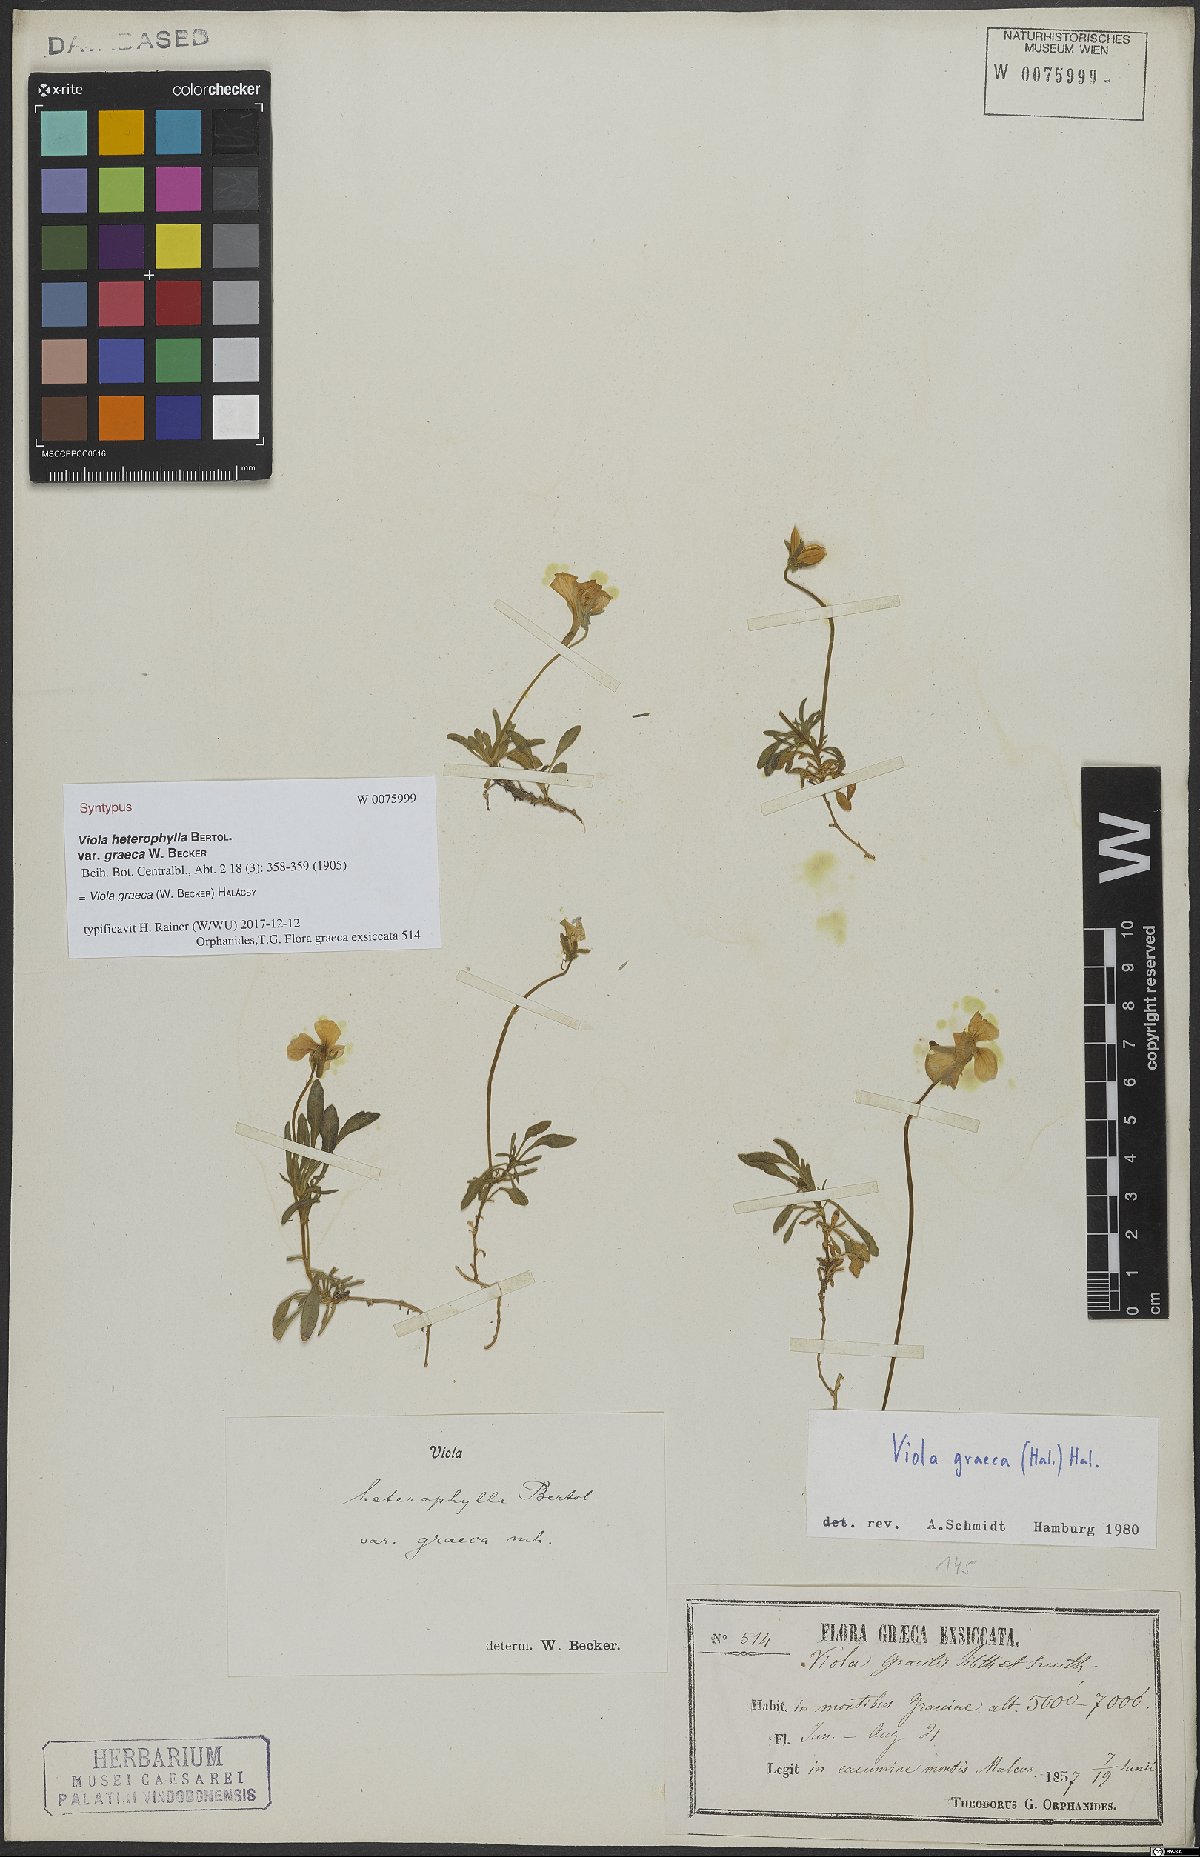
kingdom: Plantae
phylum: Tracheophyta
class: Magnoliopsida
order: Malpighiales
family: Violaceae
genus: Viola
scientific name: Viola graeca
